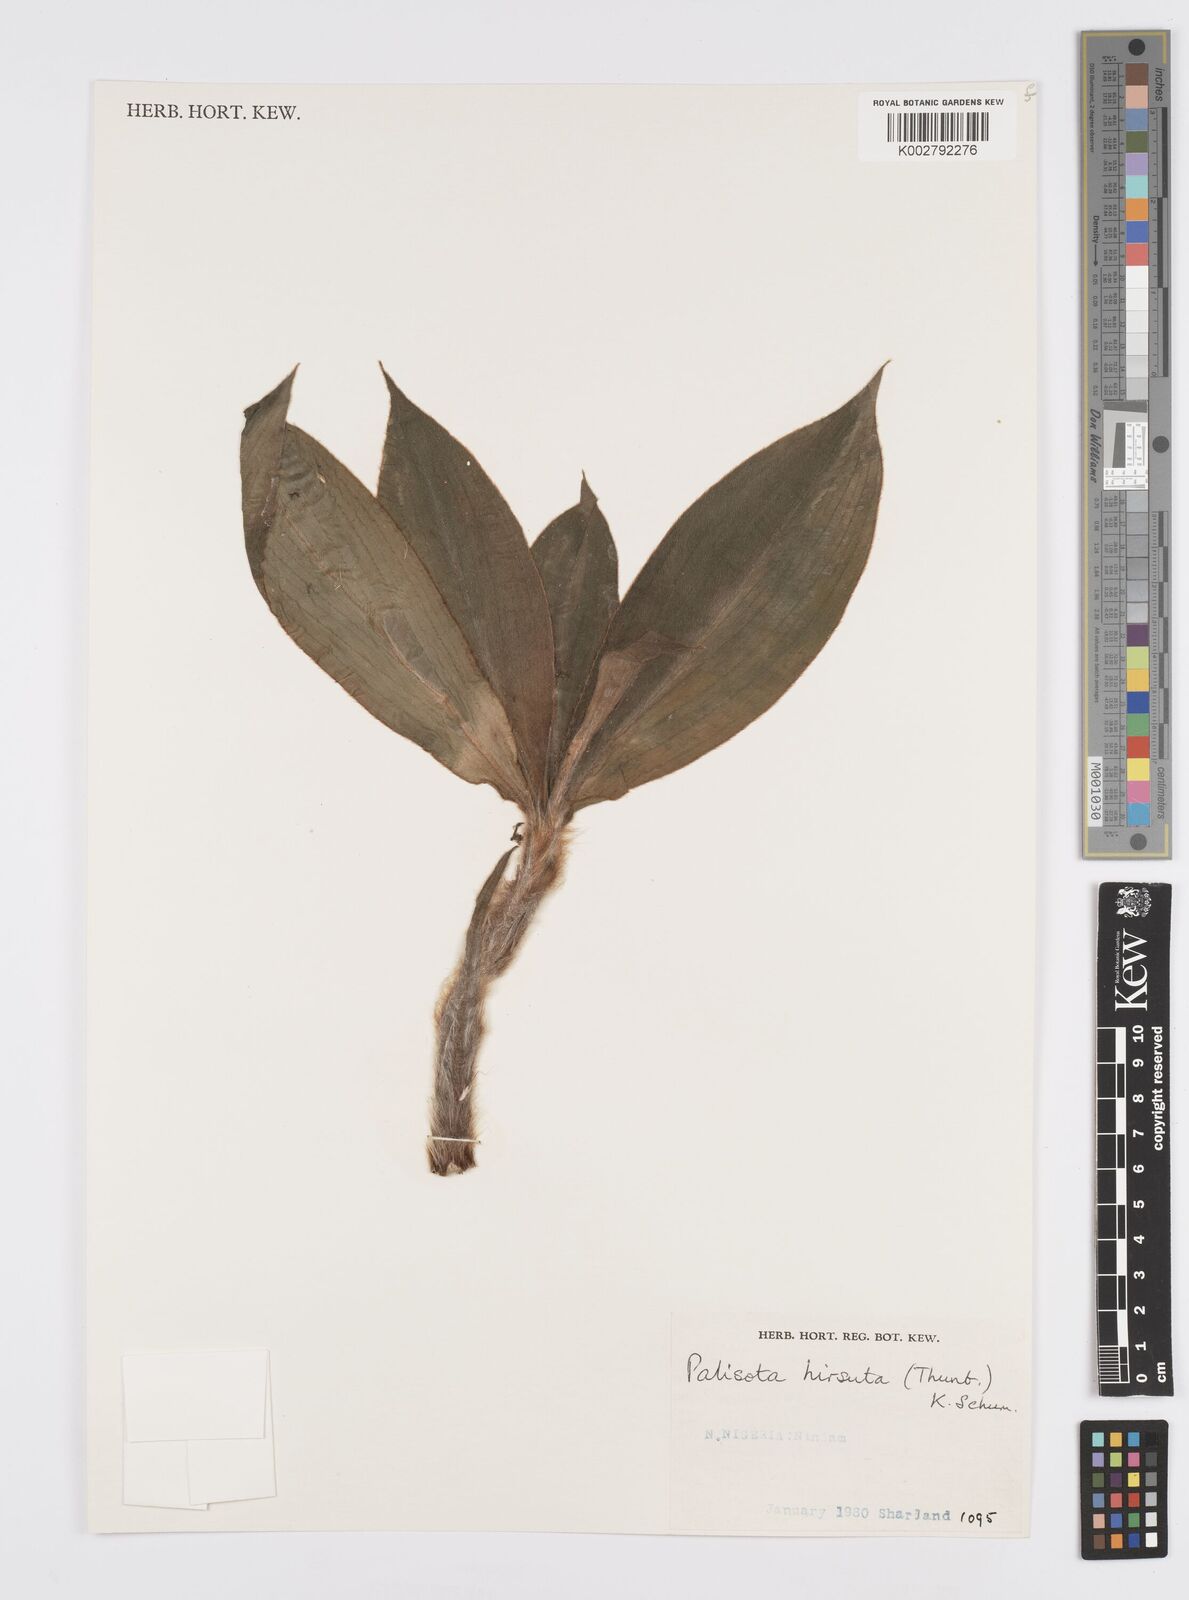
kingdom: Plantae
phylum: Tracheophyta
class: Liliopsida
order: Commelinales
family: Commelinaceae
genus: Palisota
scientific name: Palisota hirsuta
